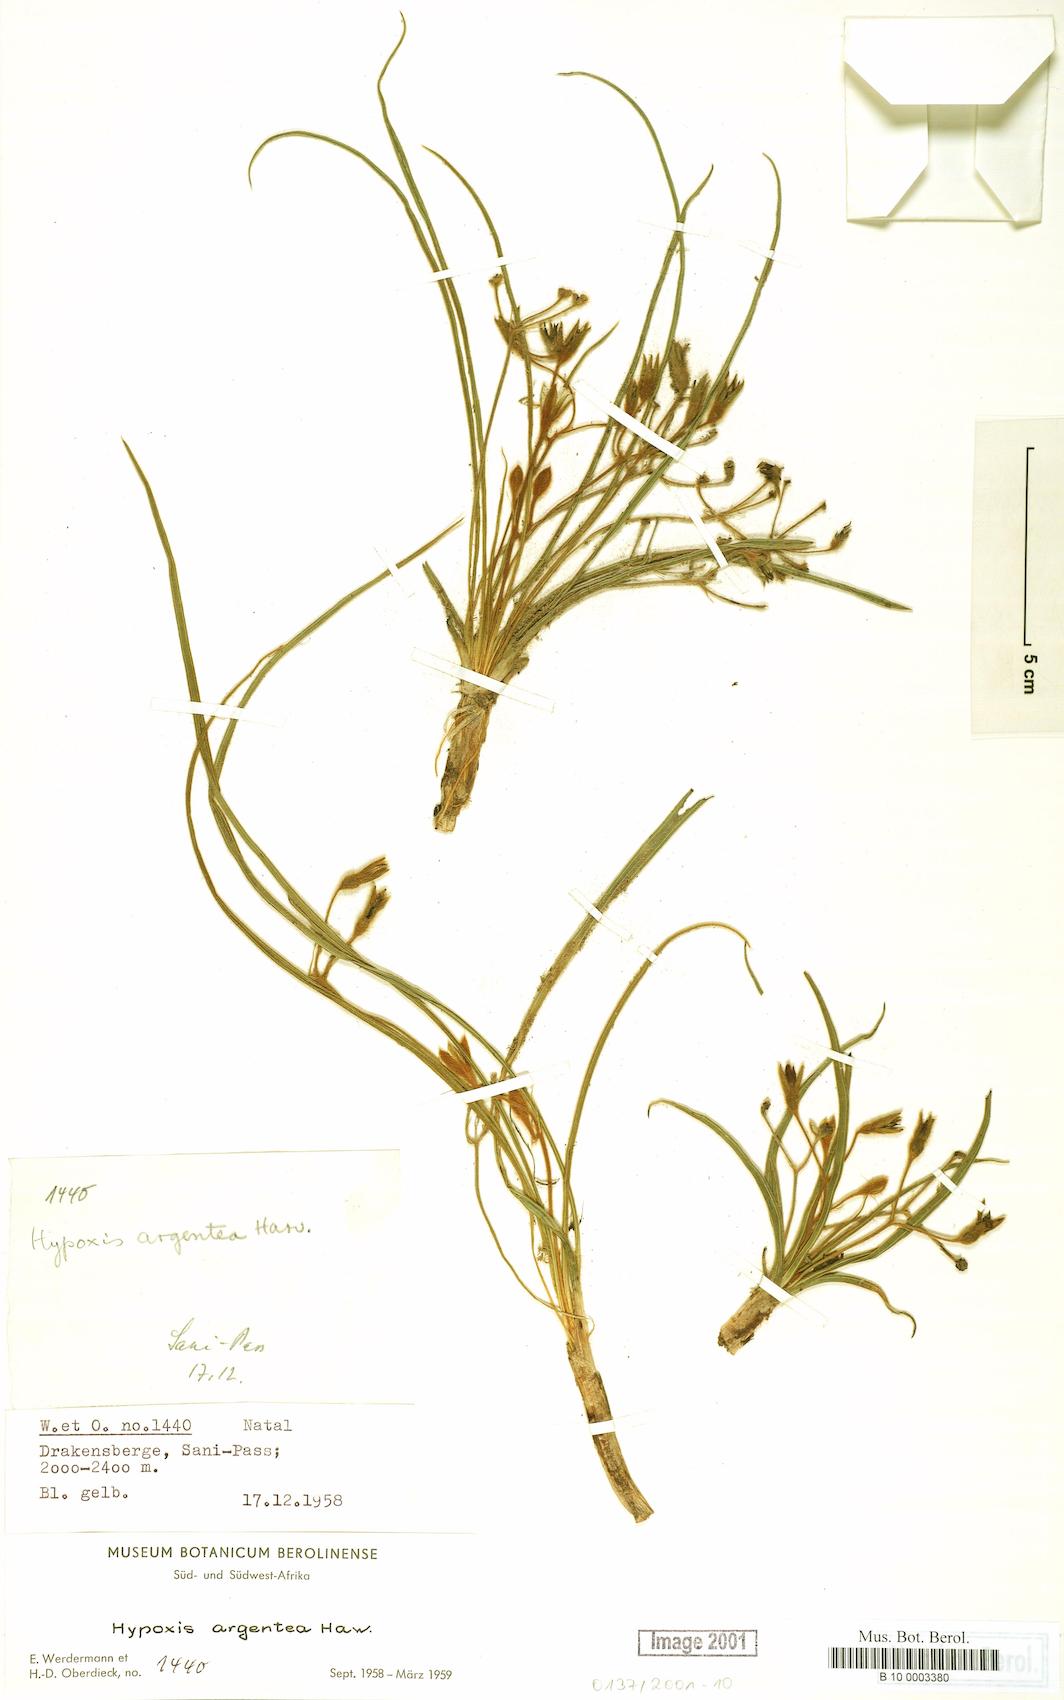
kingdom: Plantae
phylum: Tracheophyta
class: Liliopsida
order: Asparagales
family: Hypoxidaceae
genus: Hypoxis
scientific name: Hypoxis argentea
